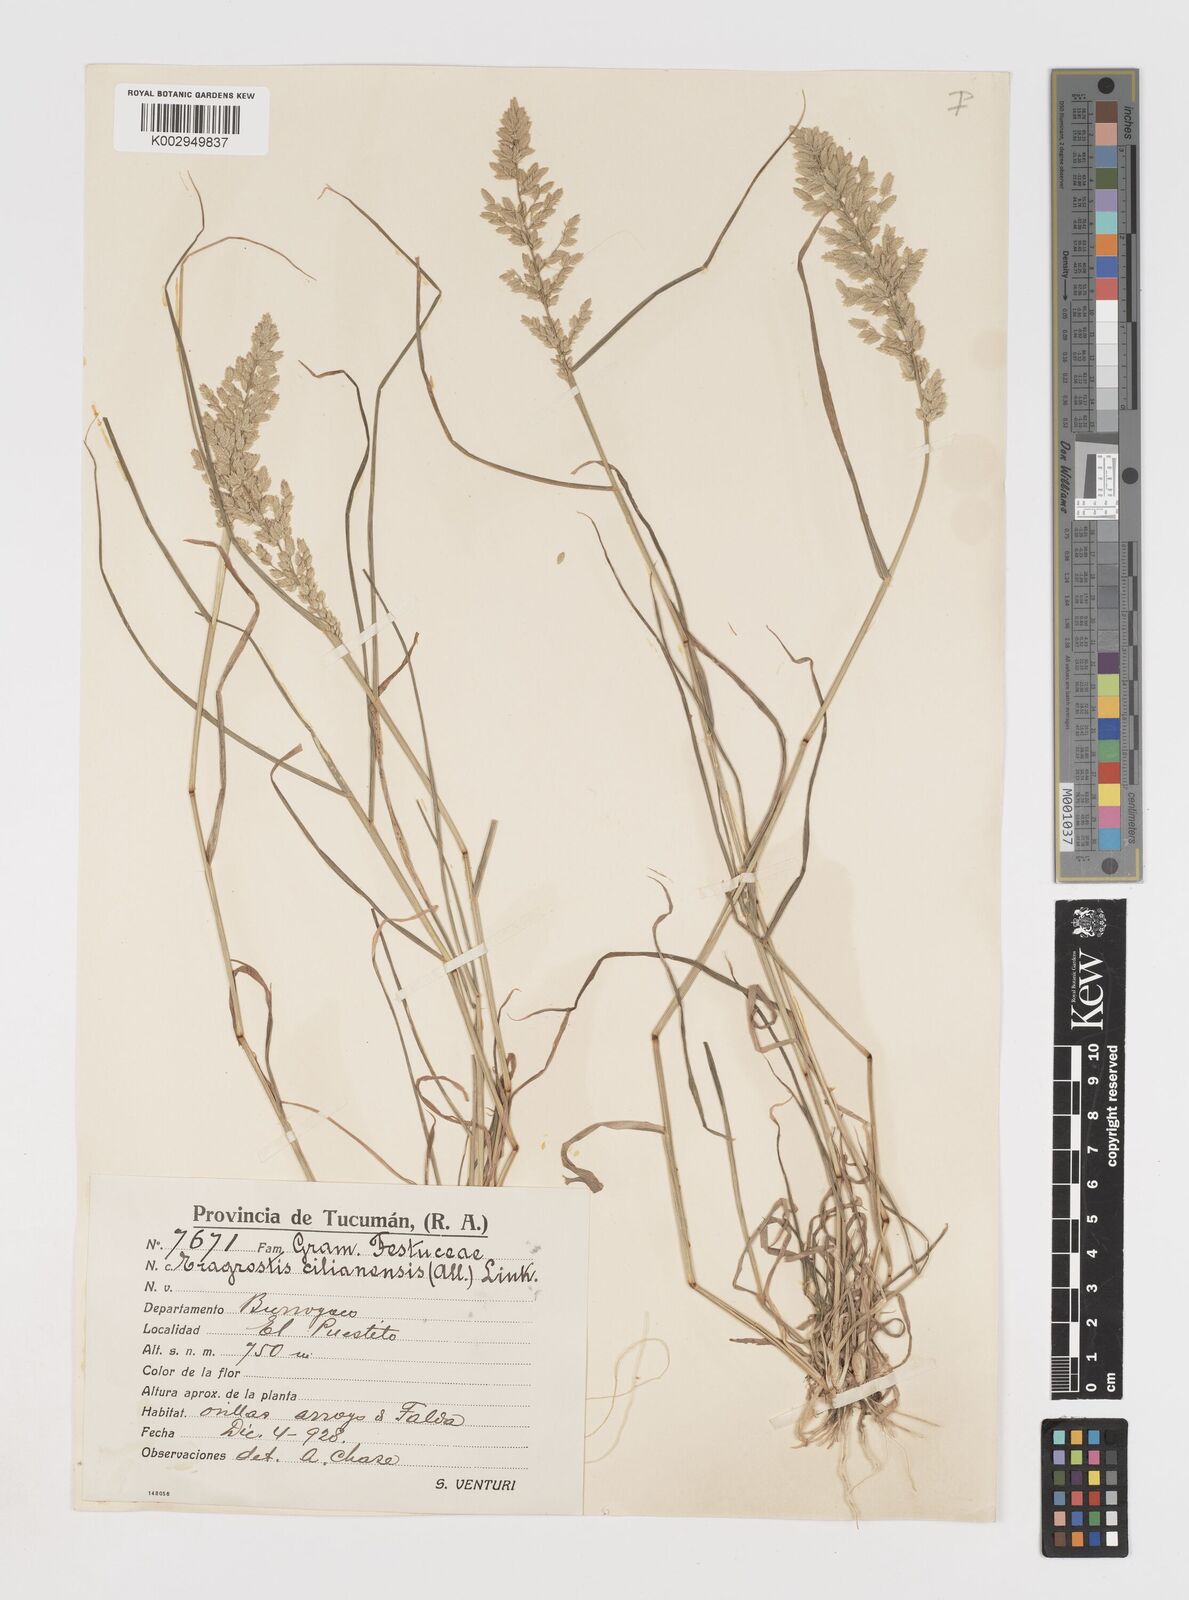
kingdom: Plantae
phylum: Tracheophyta
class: Liliopsida
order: Poales
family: Poaceae
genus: Eragrostis
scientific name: Eragrostis cilianensis
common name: Stinkgrass
